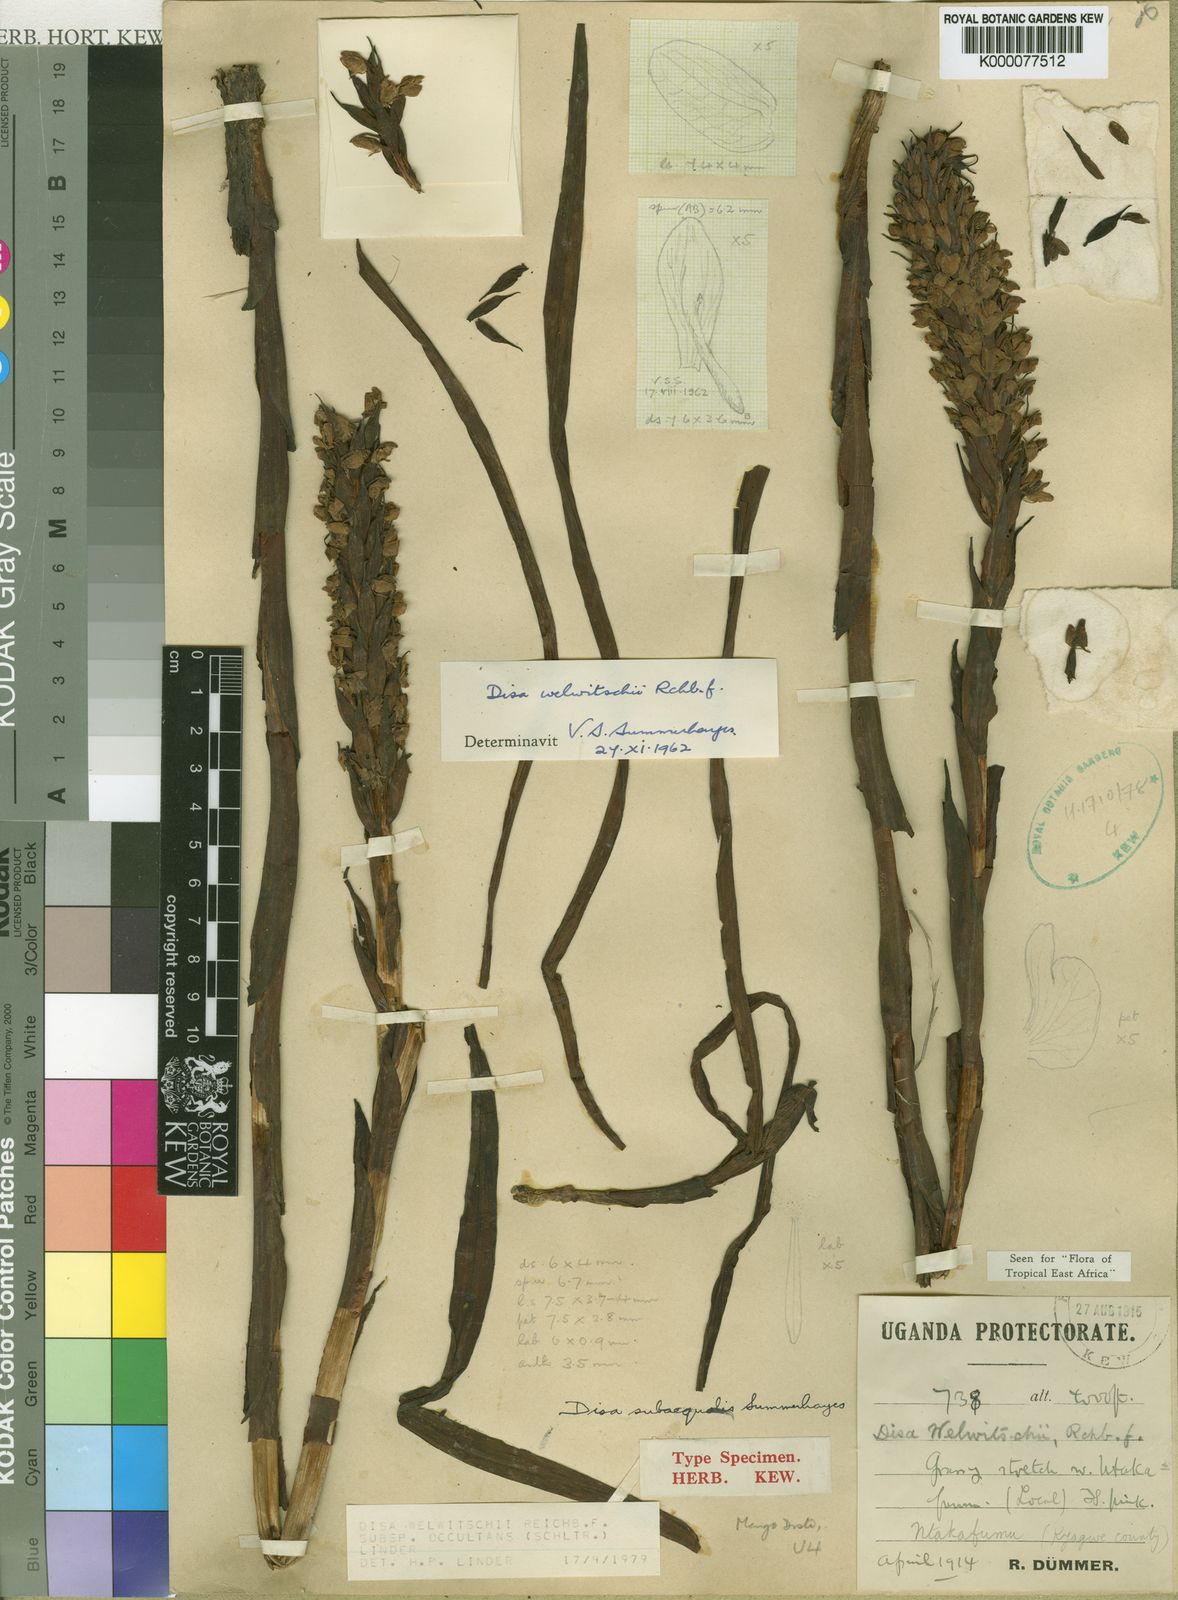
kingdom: Plantae
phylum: Tracheophyta
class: Liliopsida
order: Asparagales
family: Orchidaceae
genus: Disa
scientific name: Disa welwitschii
